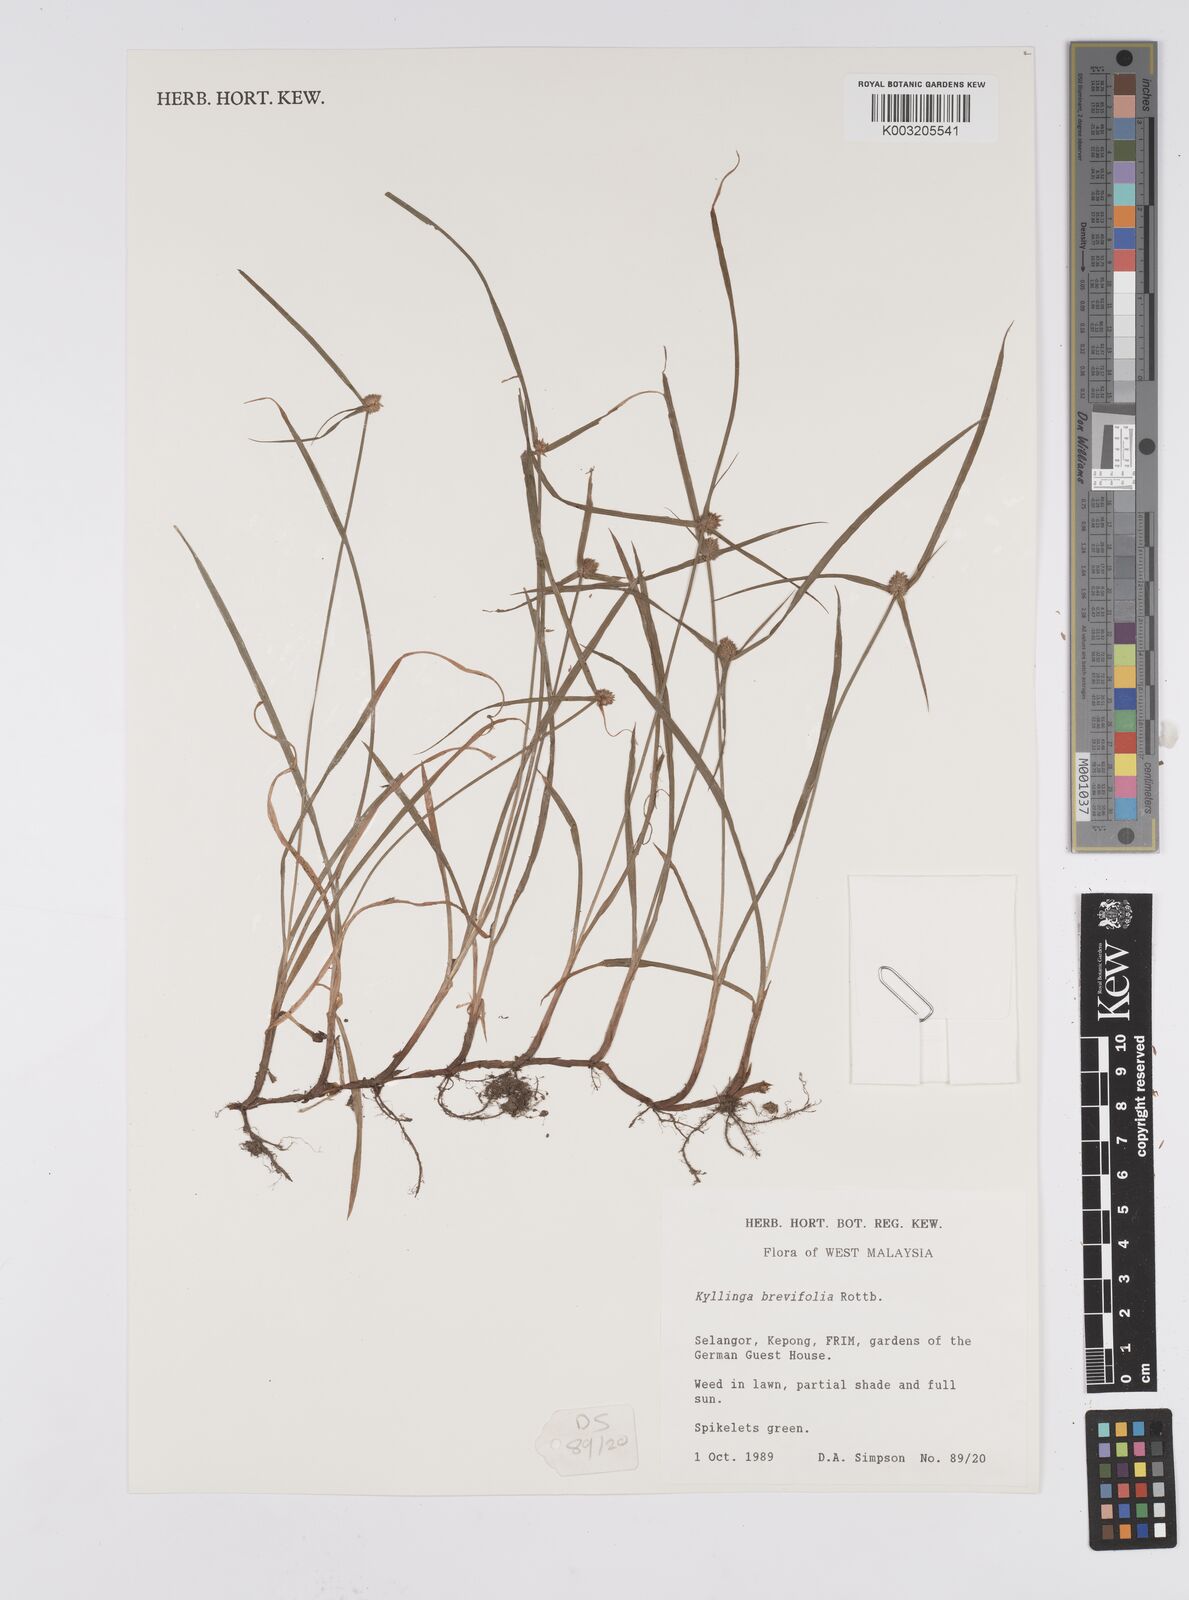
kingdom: Plantae
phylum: Tracheophyta
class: Liliopsida
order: Poales
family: Cyperaceae
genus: Cyperus
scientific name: Cyperus
